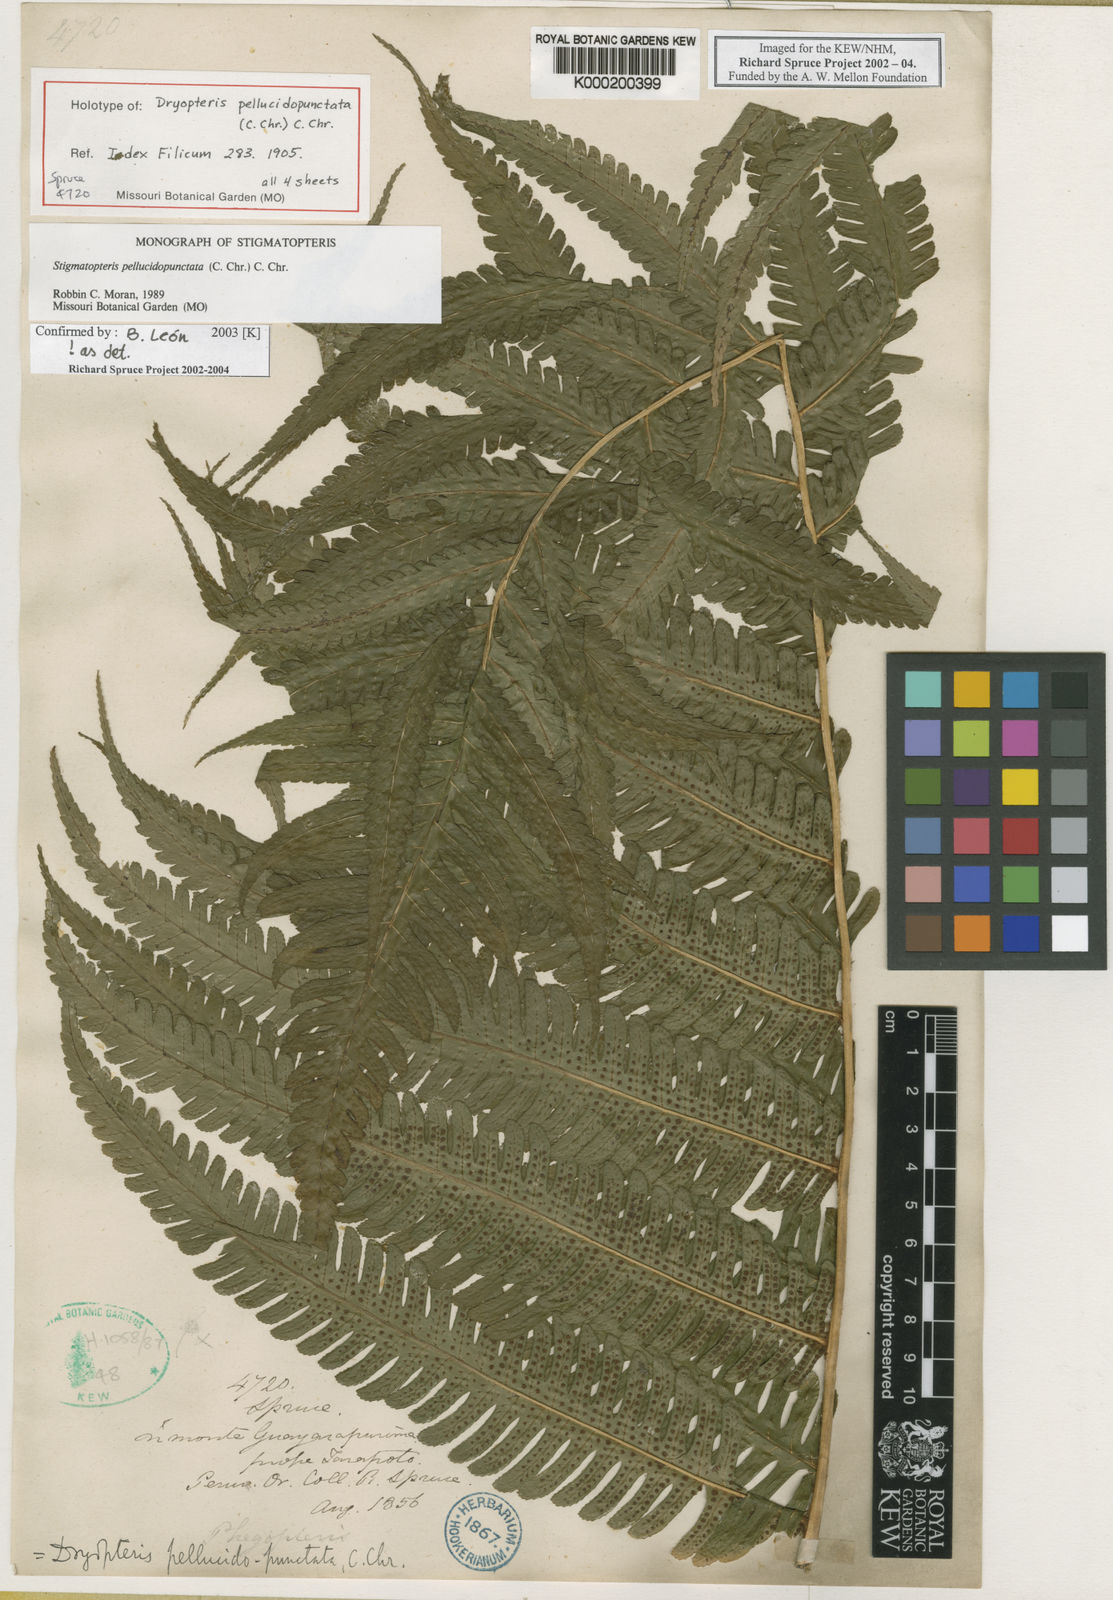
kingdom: Plantae
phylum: Tracheophyta
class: Polypodiopsida
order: Polypodiales
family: Dryopteridaceae
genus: Stigmatopteris
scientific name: Stigmatopteris pellucidopunctata
